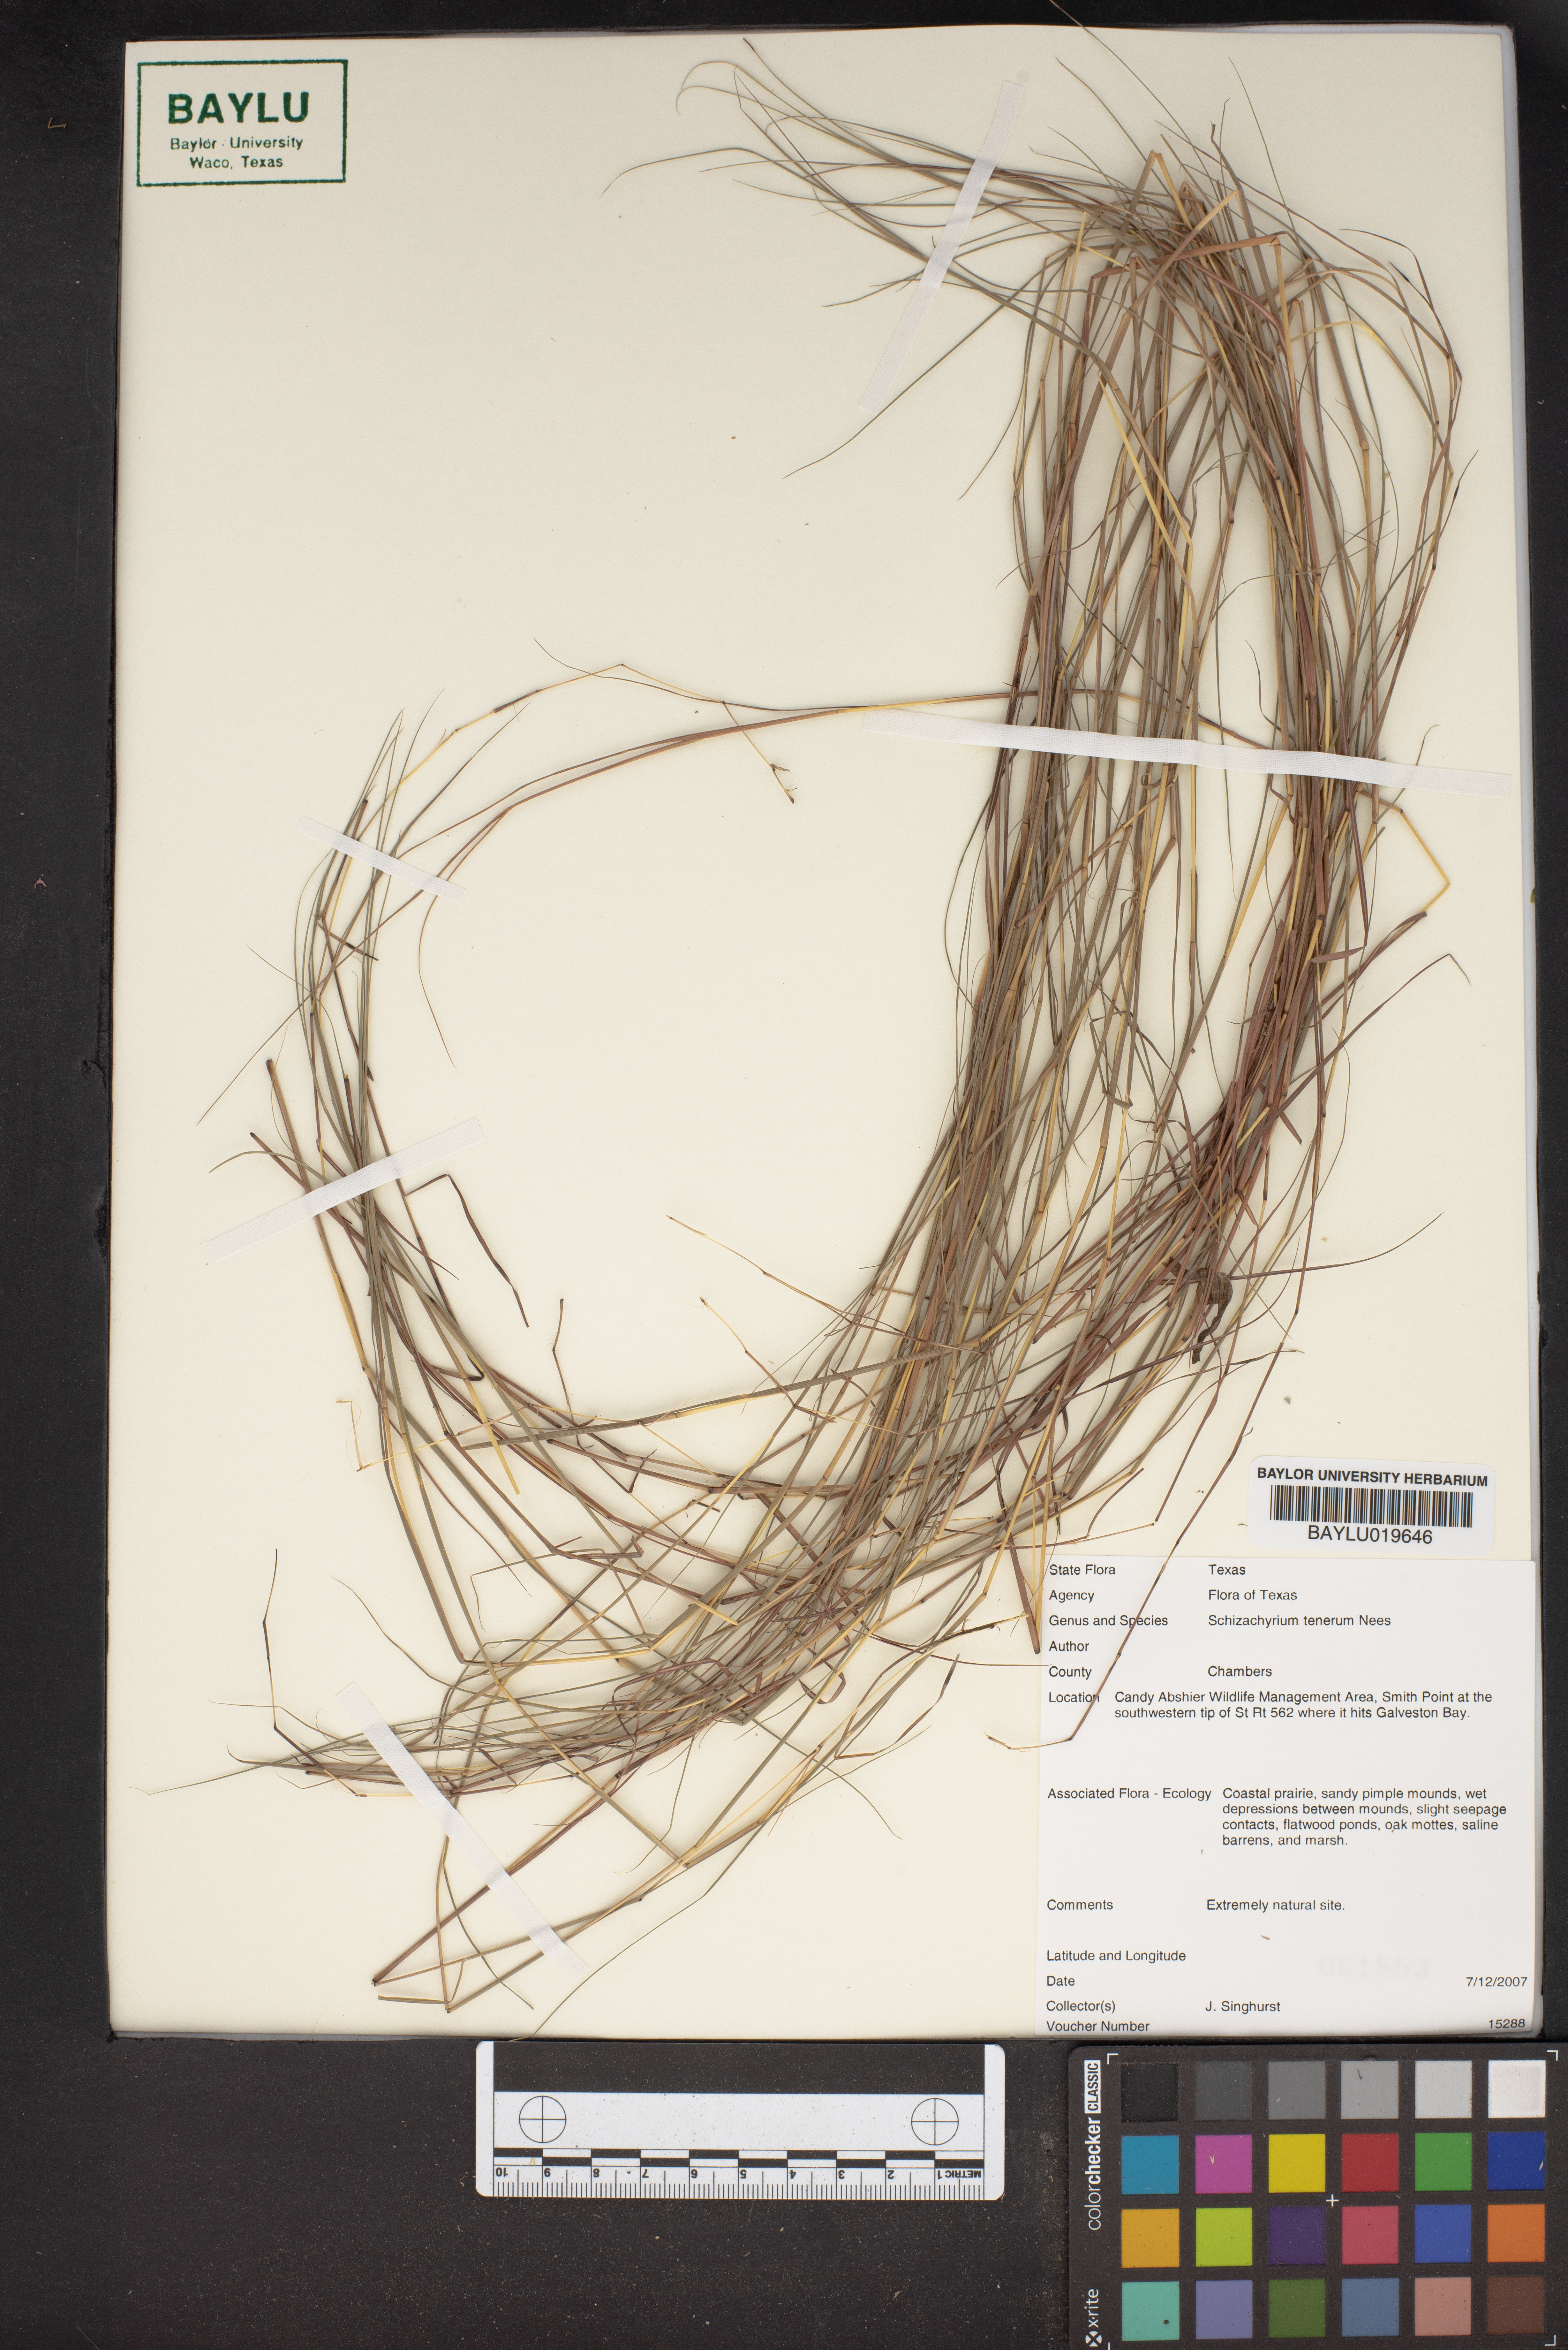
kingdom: Plantae
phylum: Tracheophyta
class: Liliopsida
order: Poales
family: Poaceae
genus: Andropogon
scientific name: Andropogon tener
